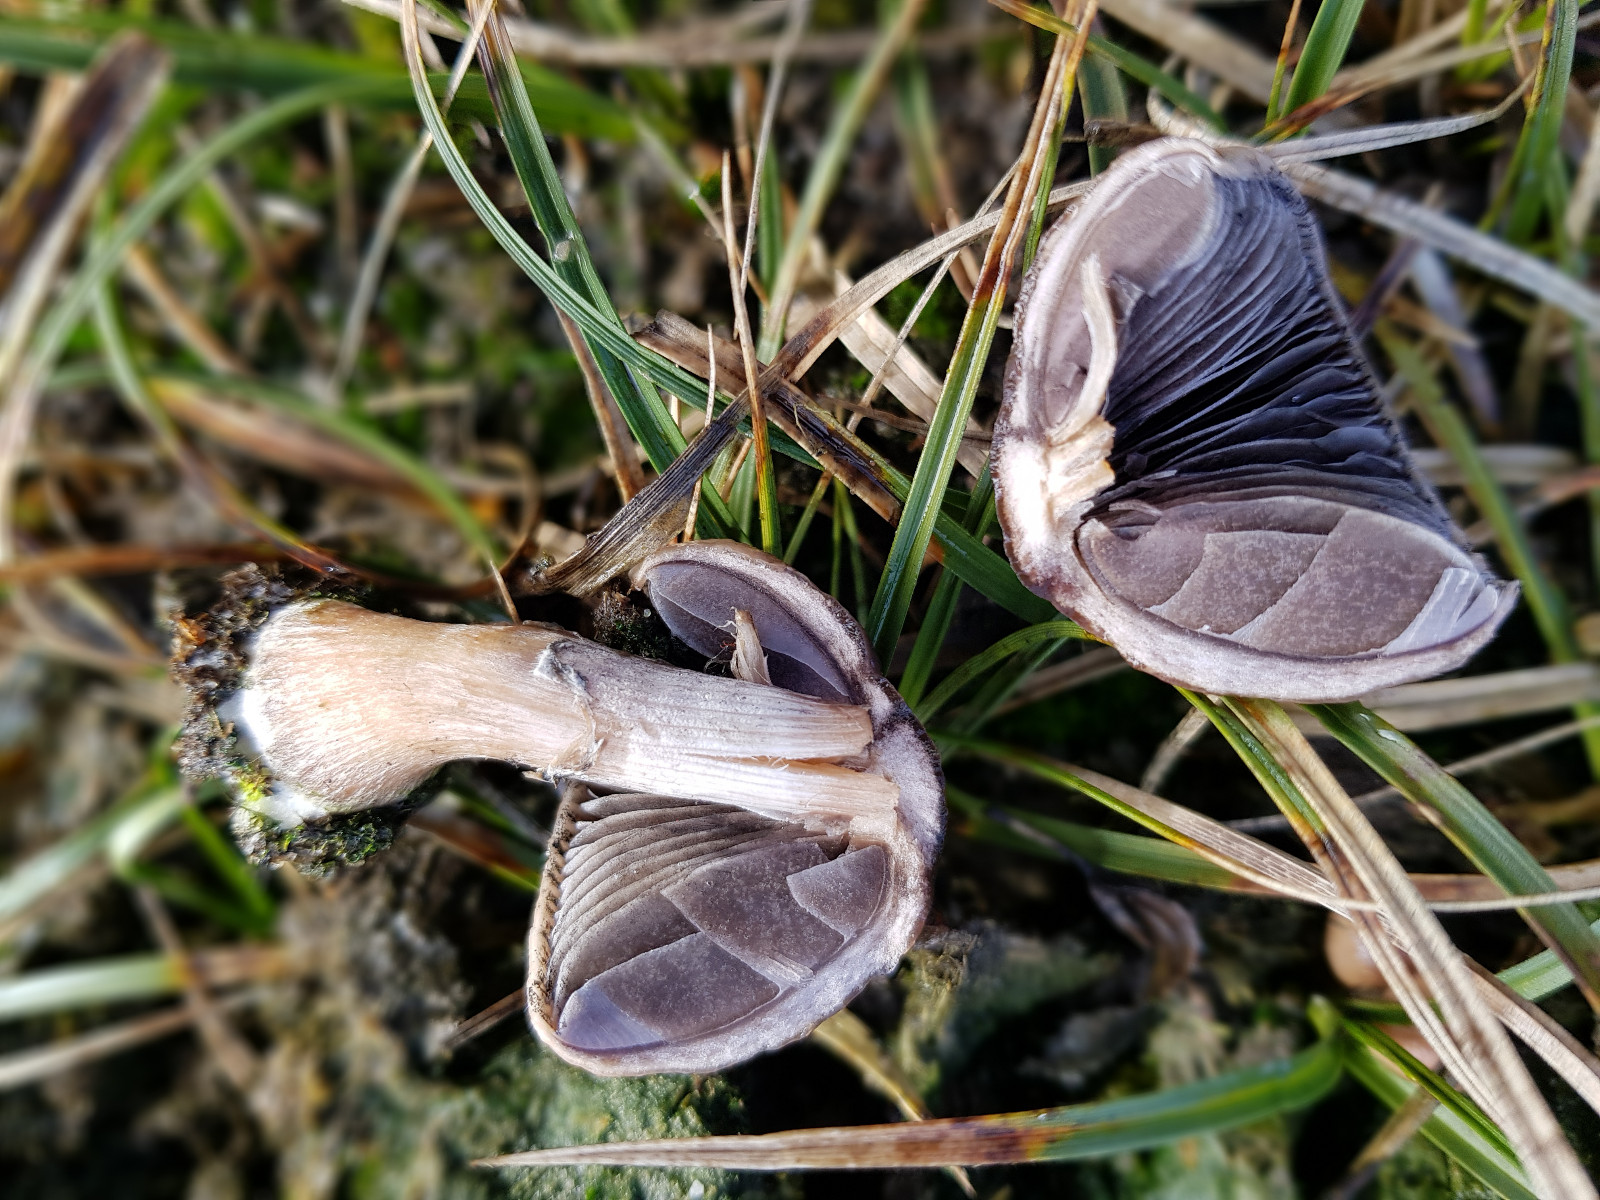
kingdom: Fungi
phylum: Basidiomycota
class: Agaricomycetes
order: Agaricales
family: Bolbitiaceae
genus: Panaeolus
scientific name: Panaeolus semiovatus
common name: ring-glanshat
